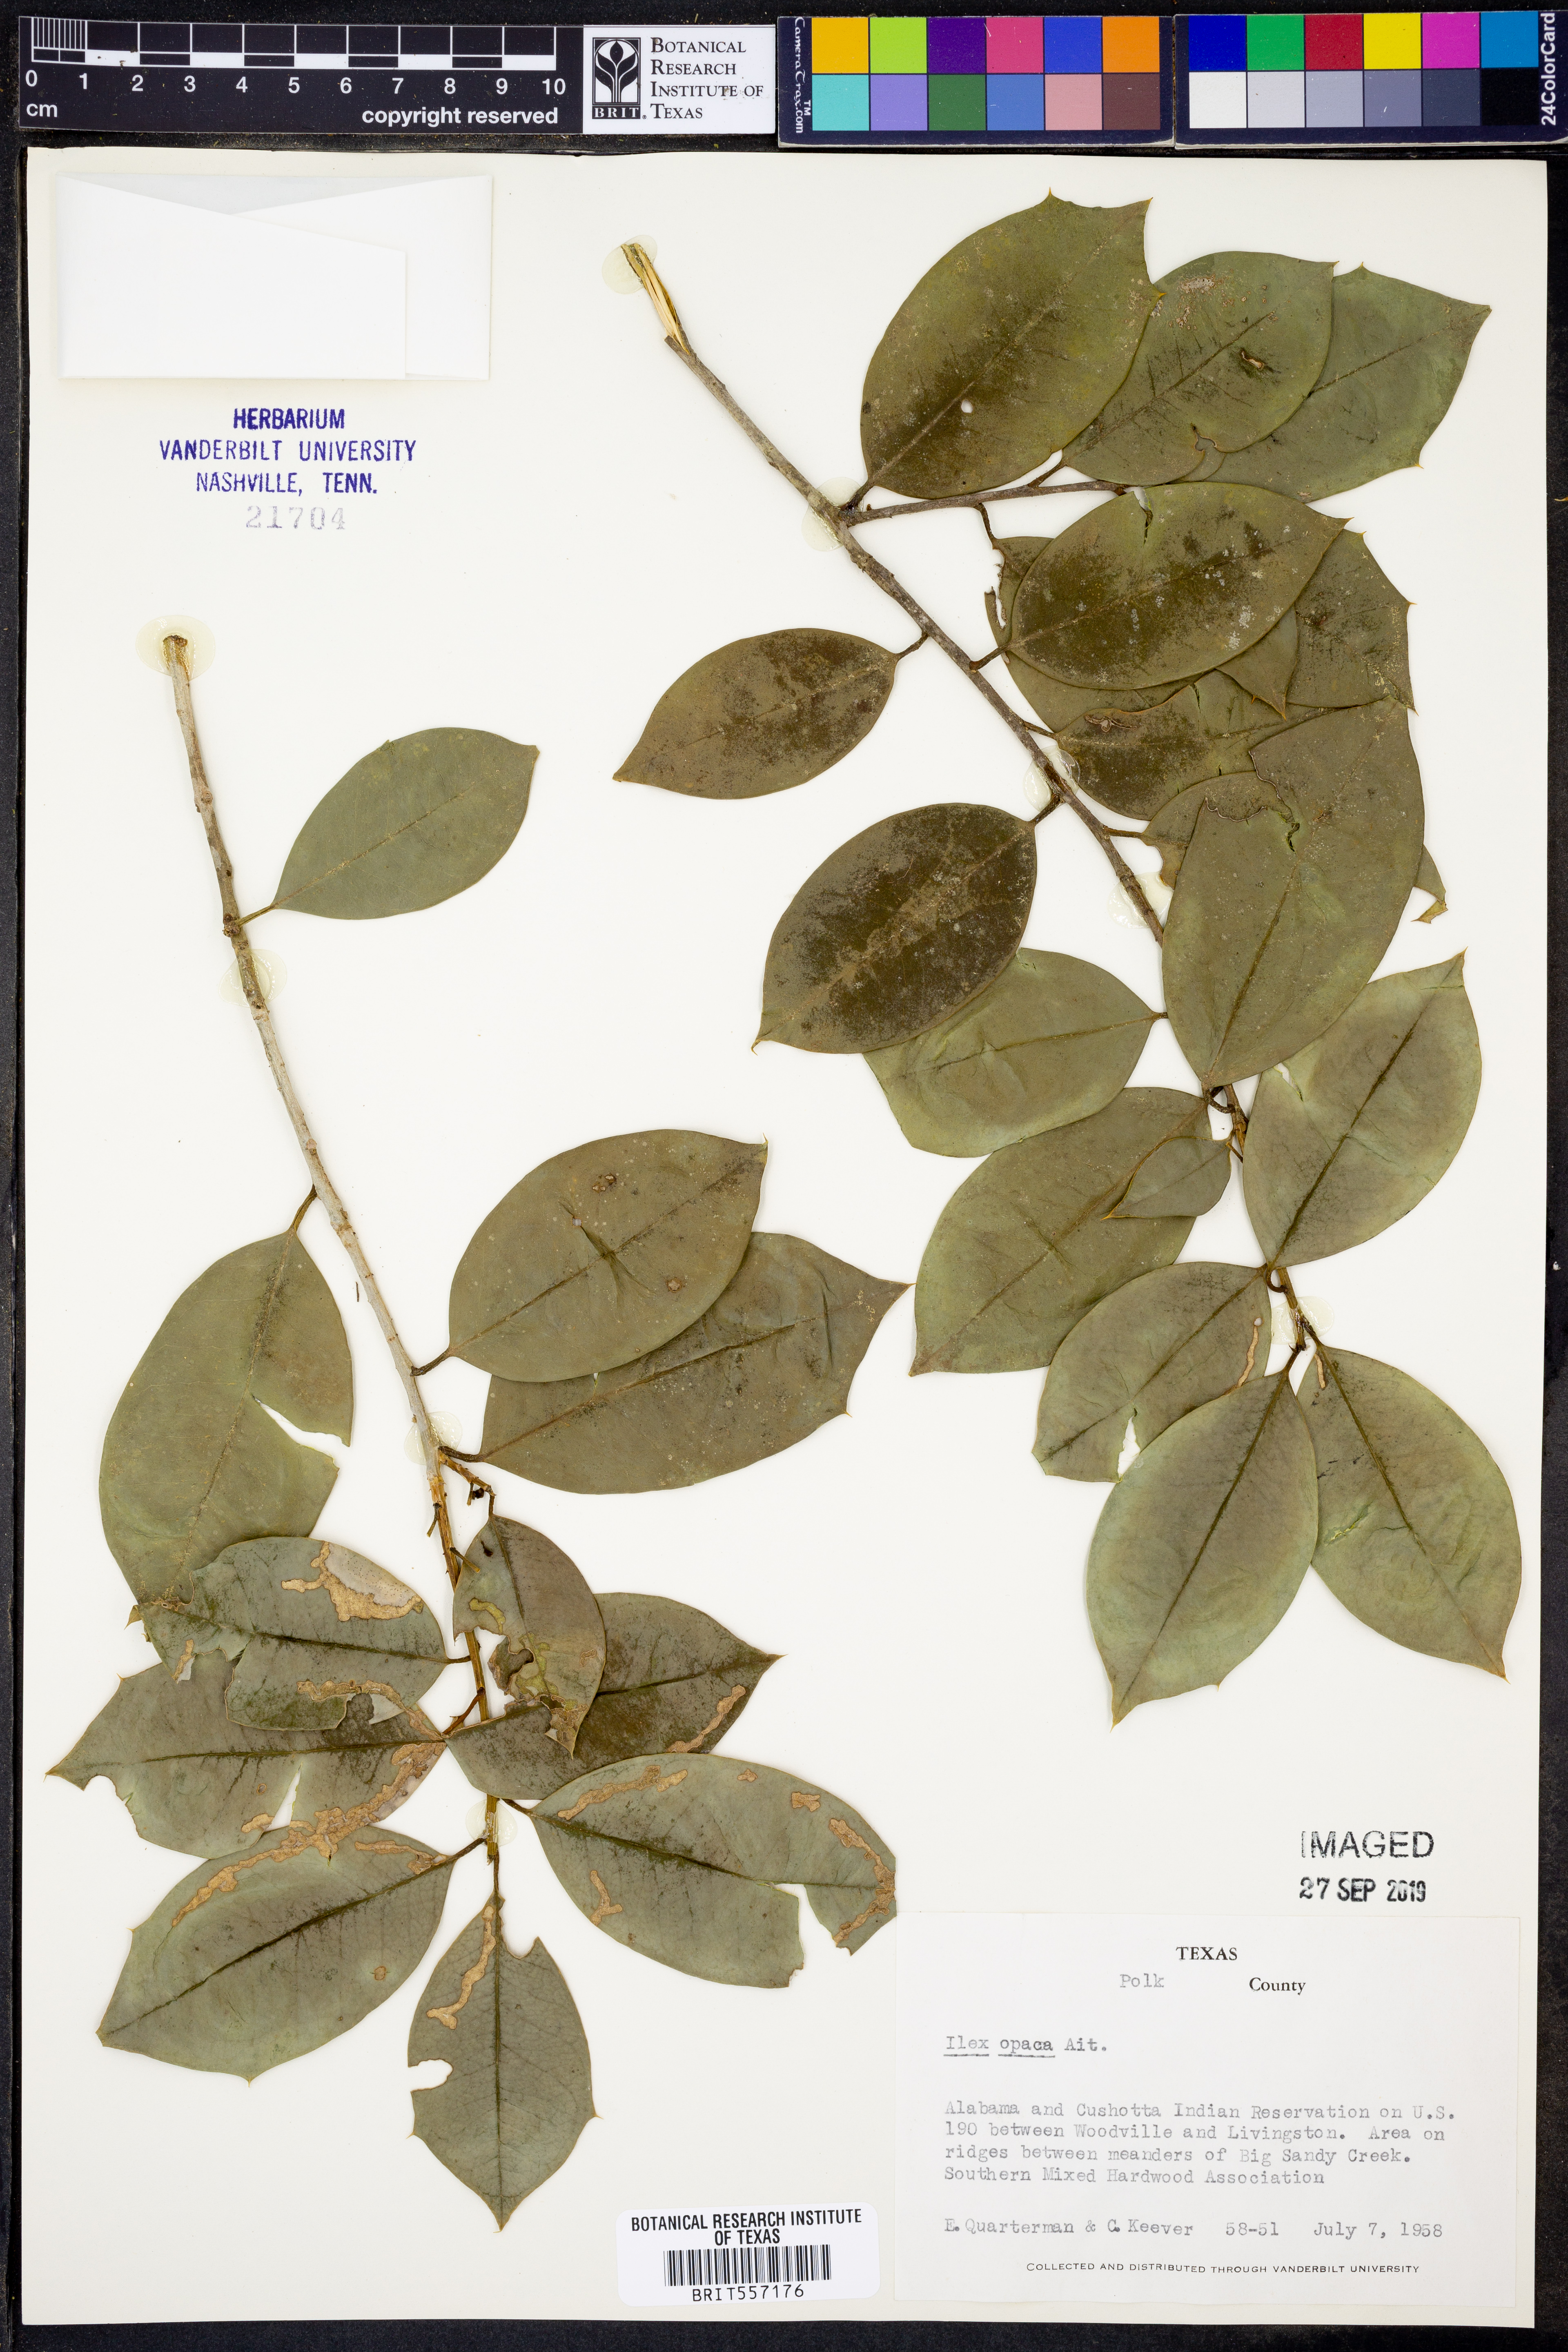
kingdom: Plantae
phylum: Tracheophyta
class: Magnoliopsida
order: Aquifoliales
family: Aquifoliaceae
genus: Ilex
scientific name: Ilex opaca
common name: American holly
